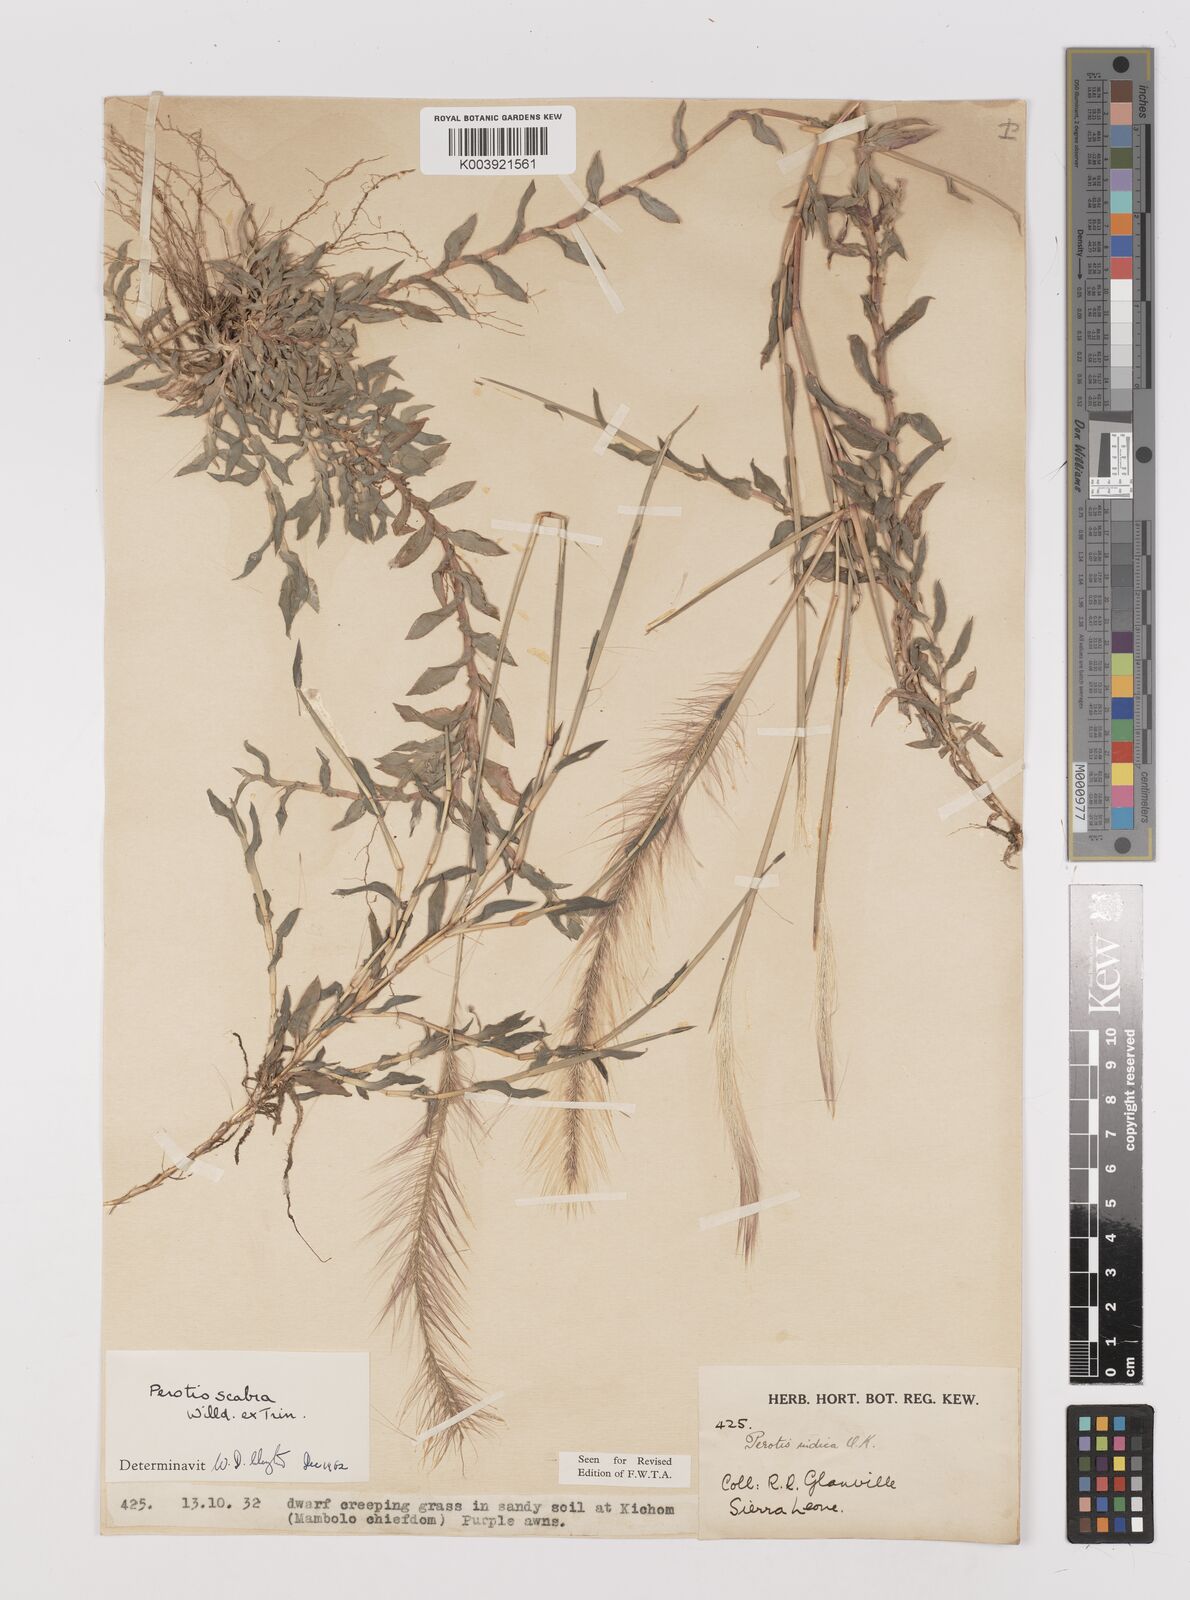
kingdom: Plantae
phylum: Tracheophyta
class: Liliopsida
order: Poales
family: Poaceae
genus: Perotis
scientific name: Perotis scabra
